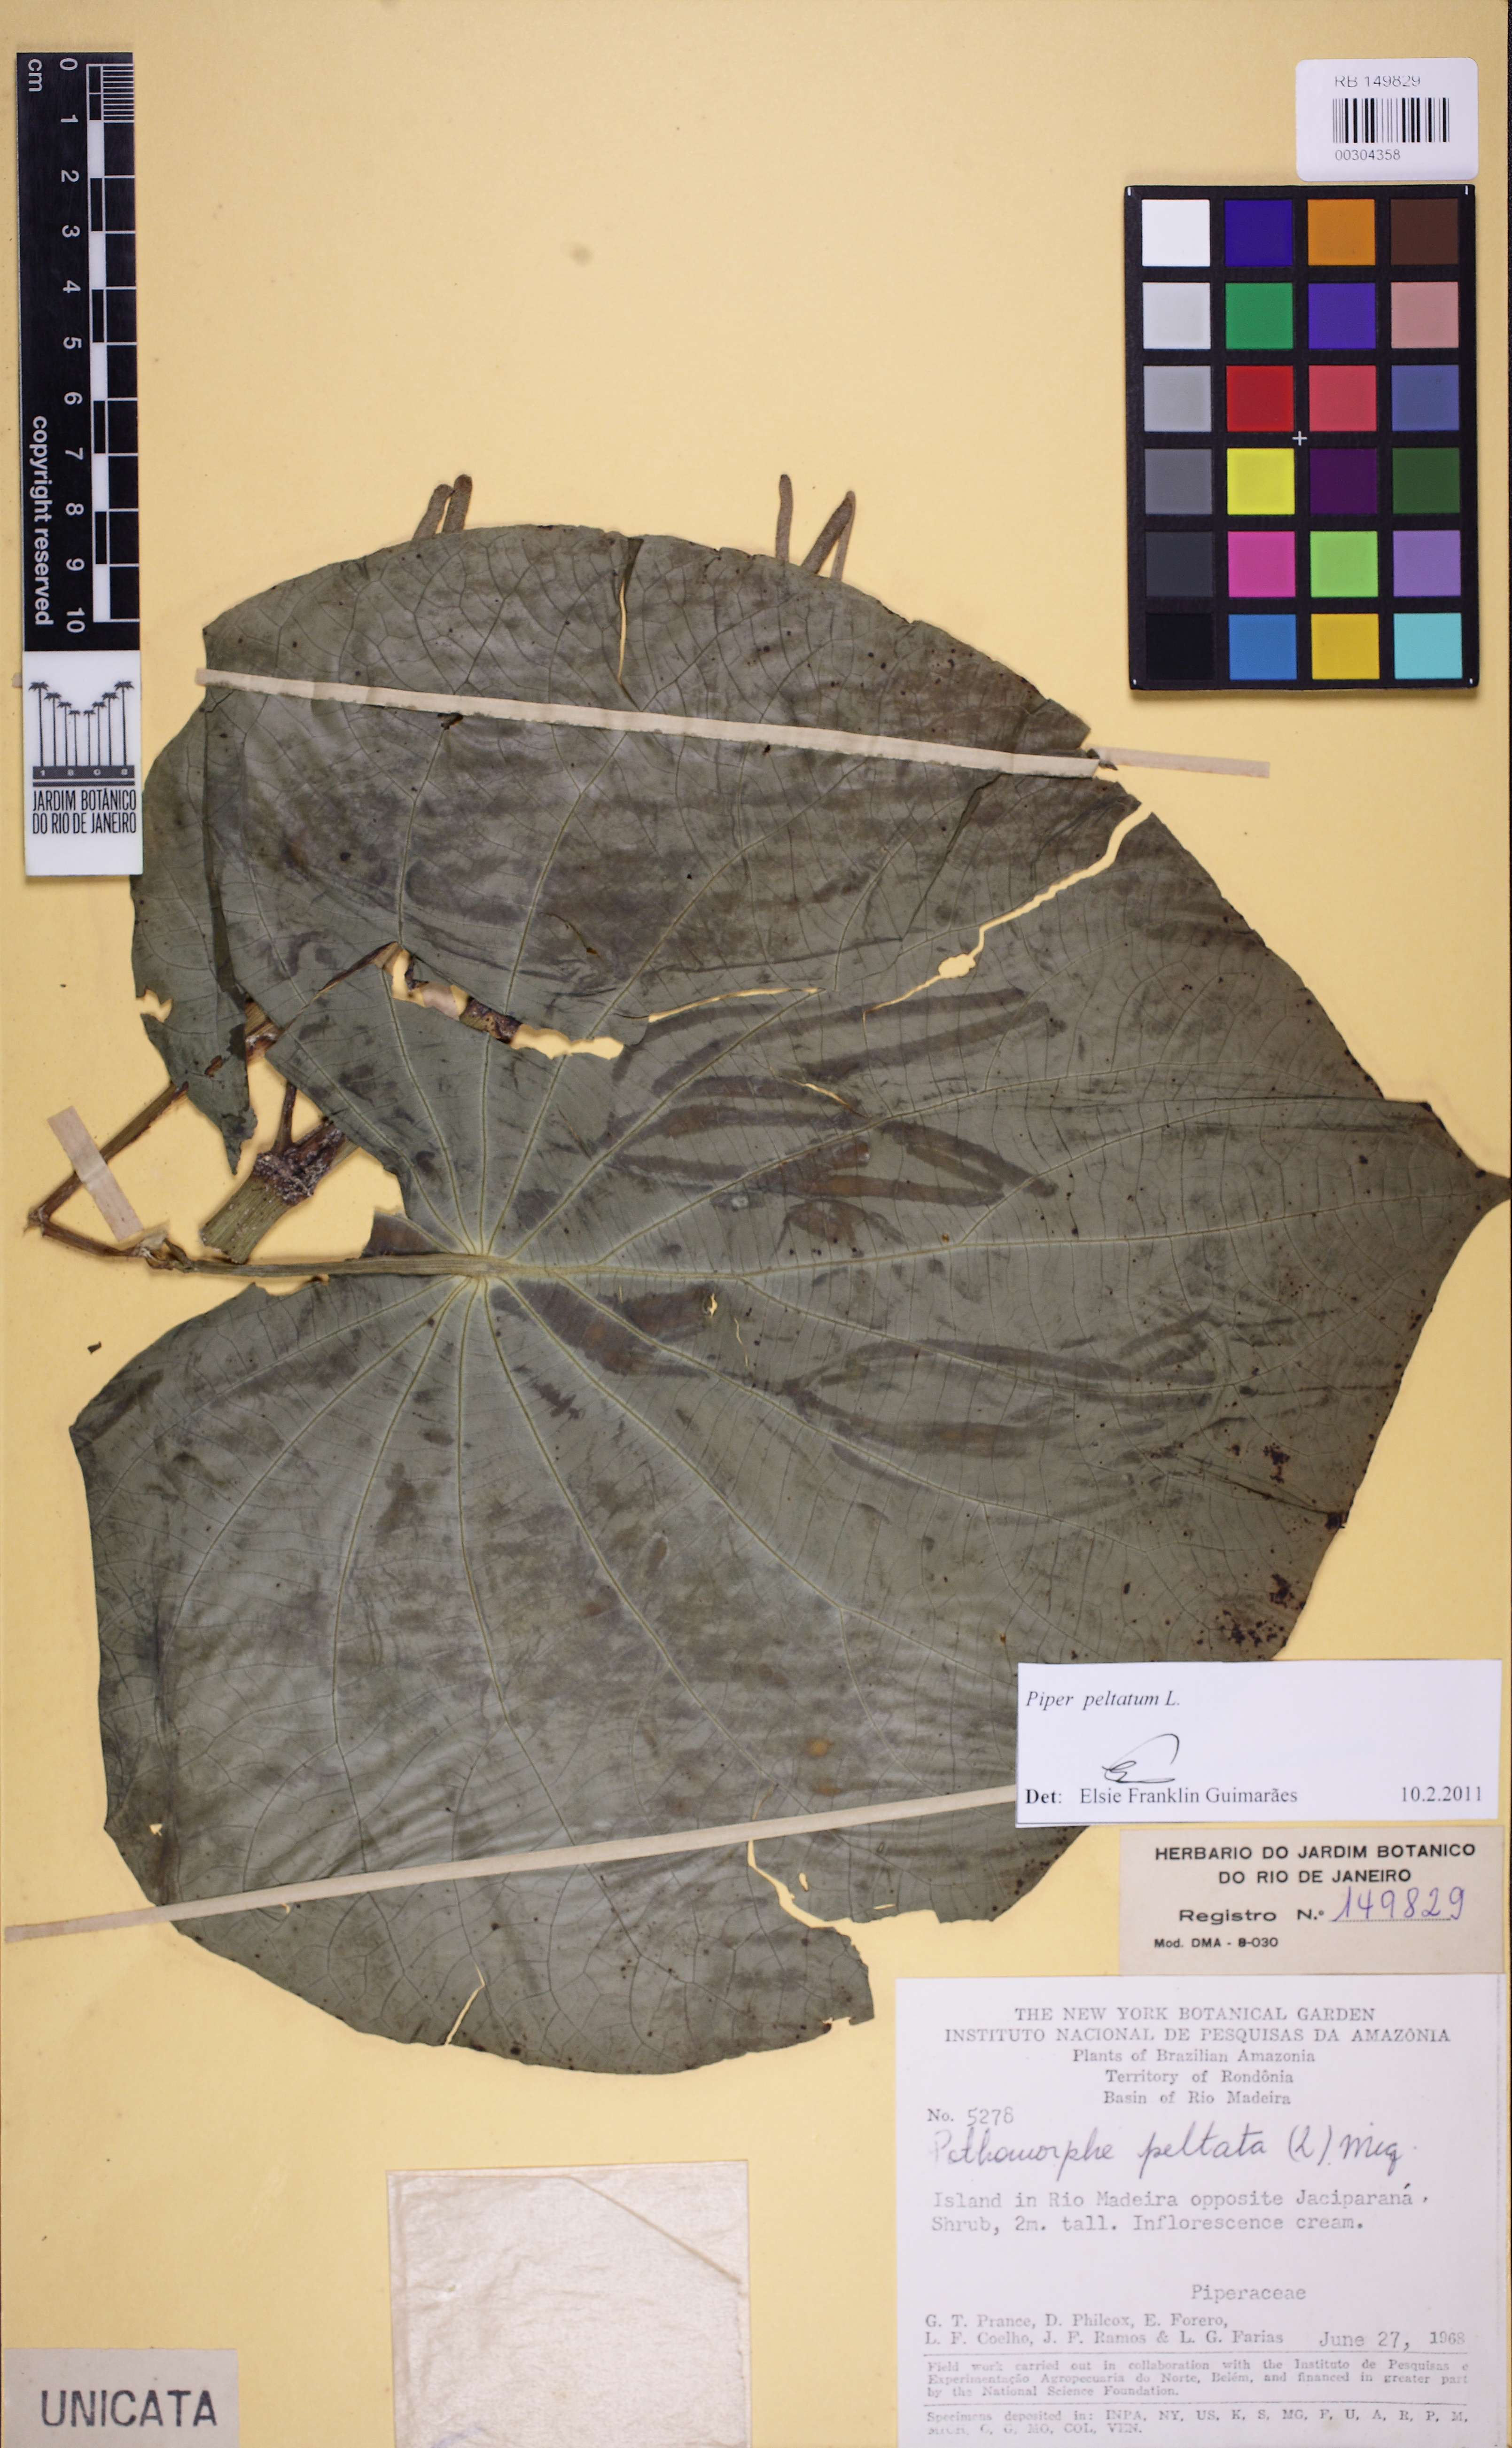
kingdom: Plantae
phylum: Tracheophyta
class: Magnoliopsida
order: Piperales
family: Piperaceae
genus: Piper
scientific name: Piper peltatum
